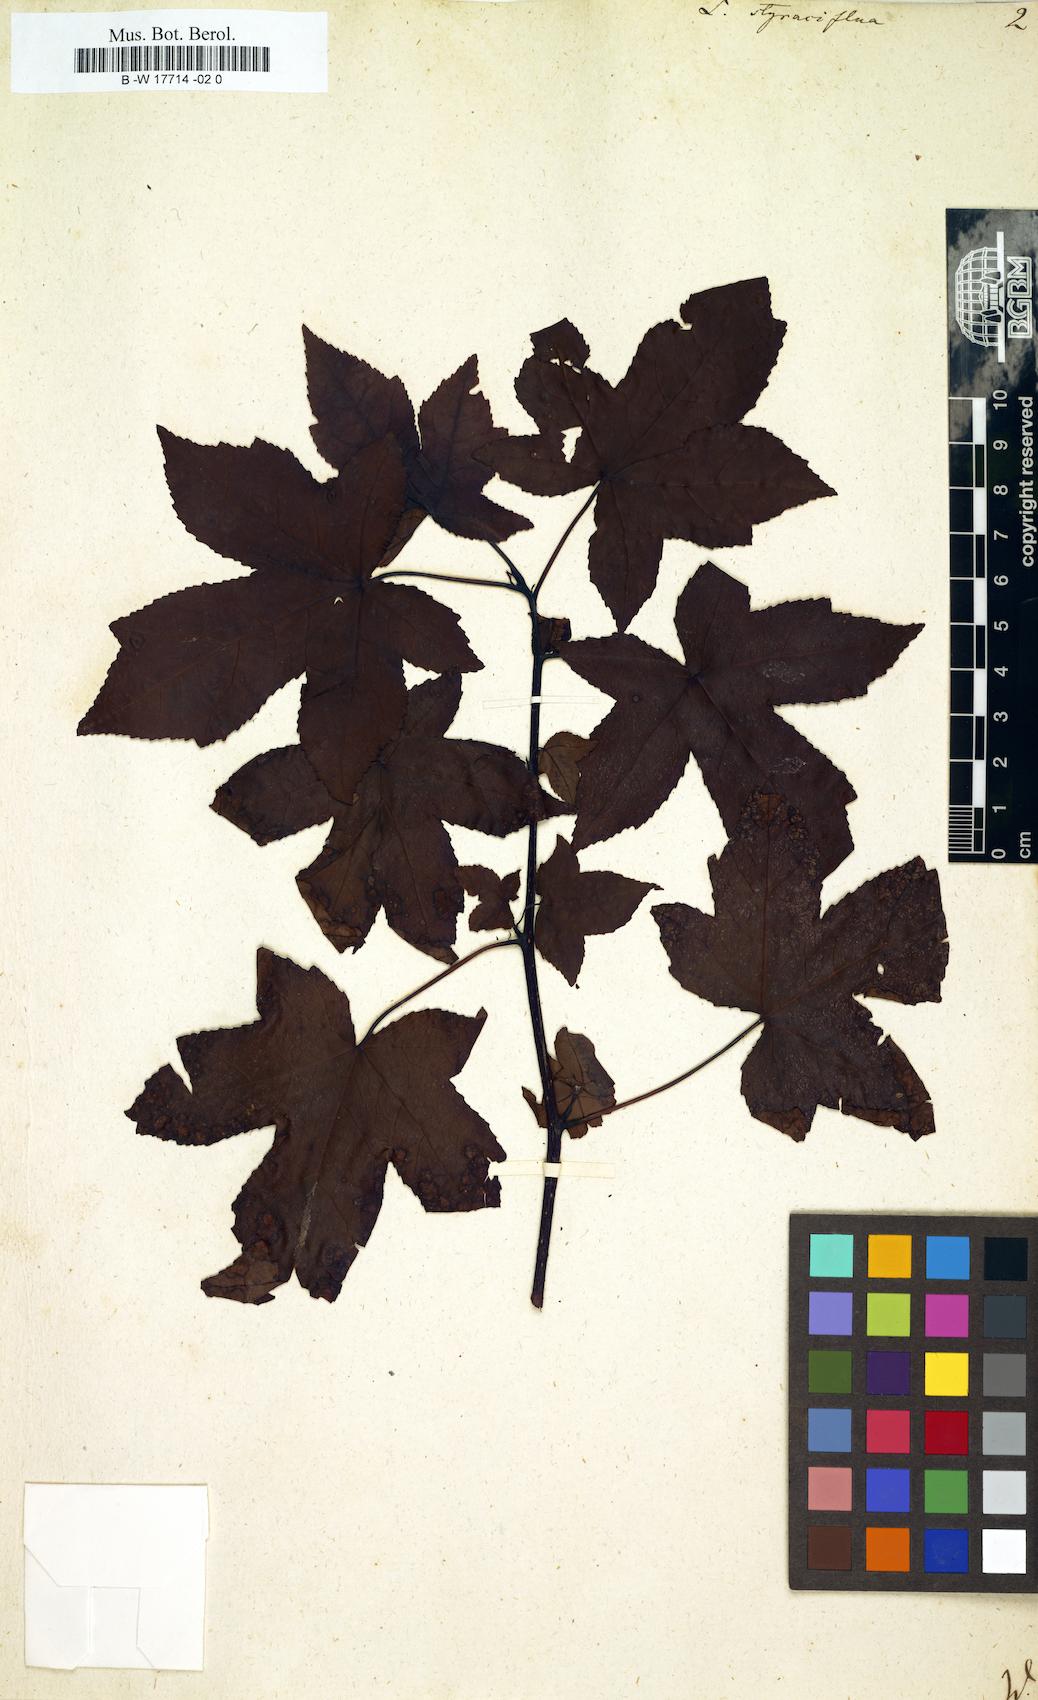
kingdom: Plantae
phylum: Tracheophyta
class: Magnoliopsida
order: Saxifragales
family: Altingiaceae
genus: Liquidambar
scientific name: Liquidambar styraciflua
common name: Sweet gum
